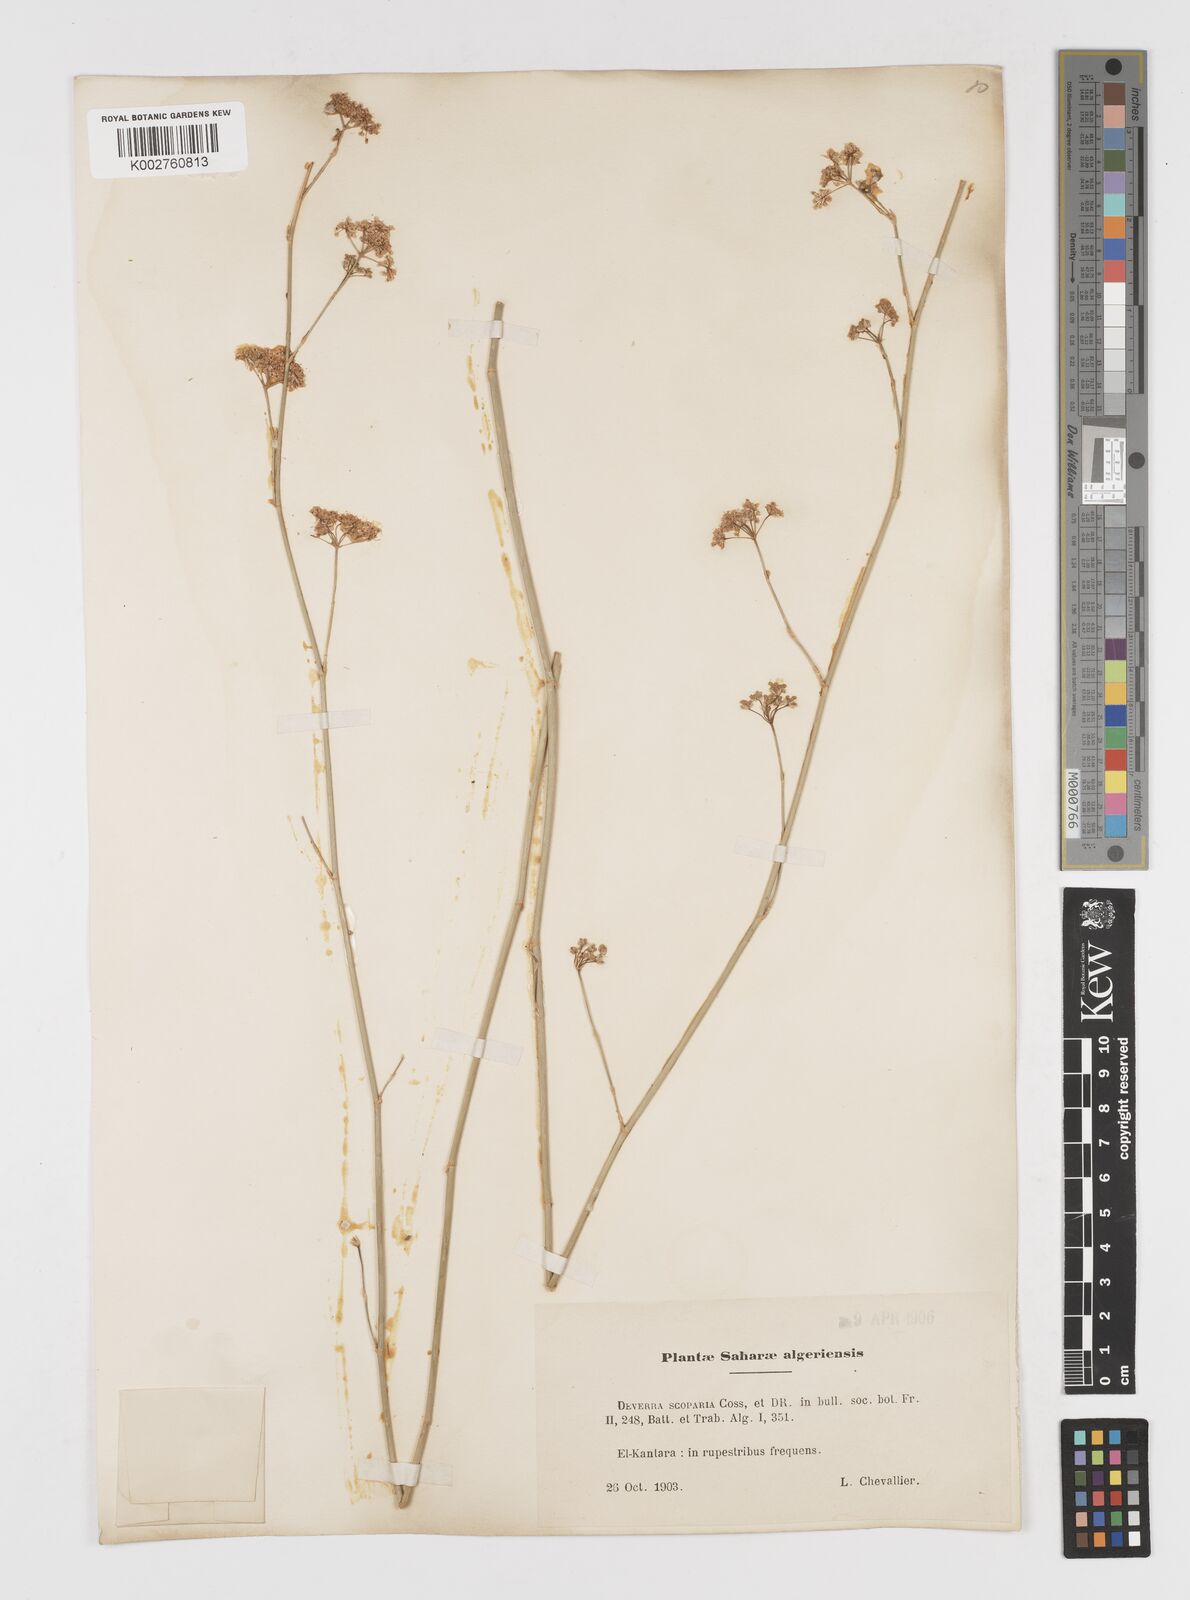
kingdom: Plantae
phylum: Tracheophyta
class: Magnoliopsida
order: Apiales
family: Apiaceae
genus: Deverra
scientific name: Deverra scoparia
